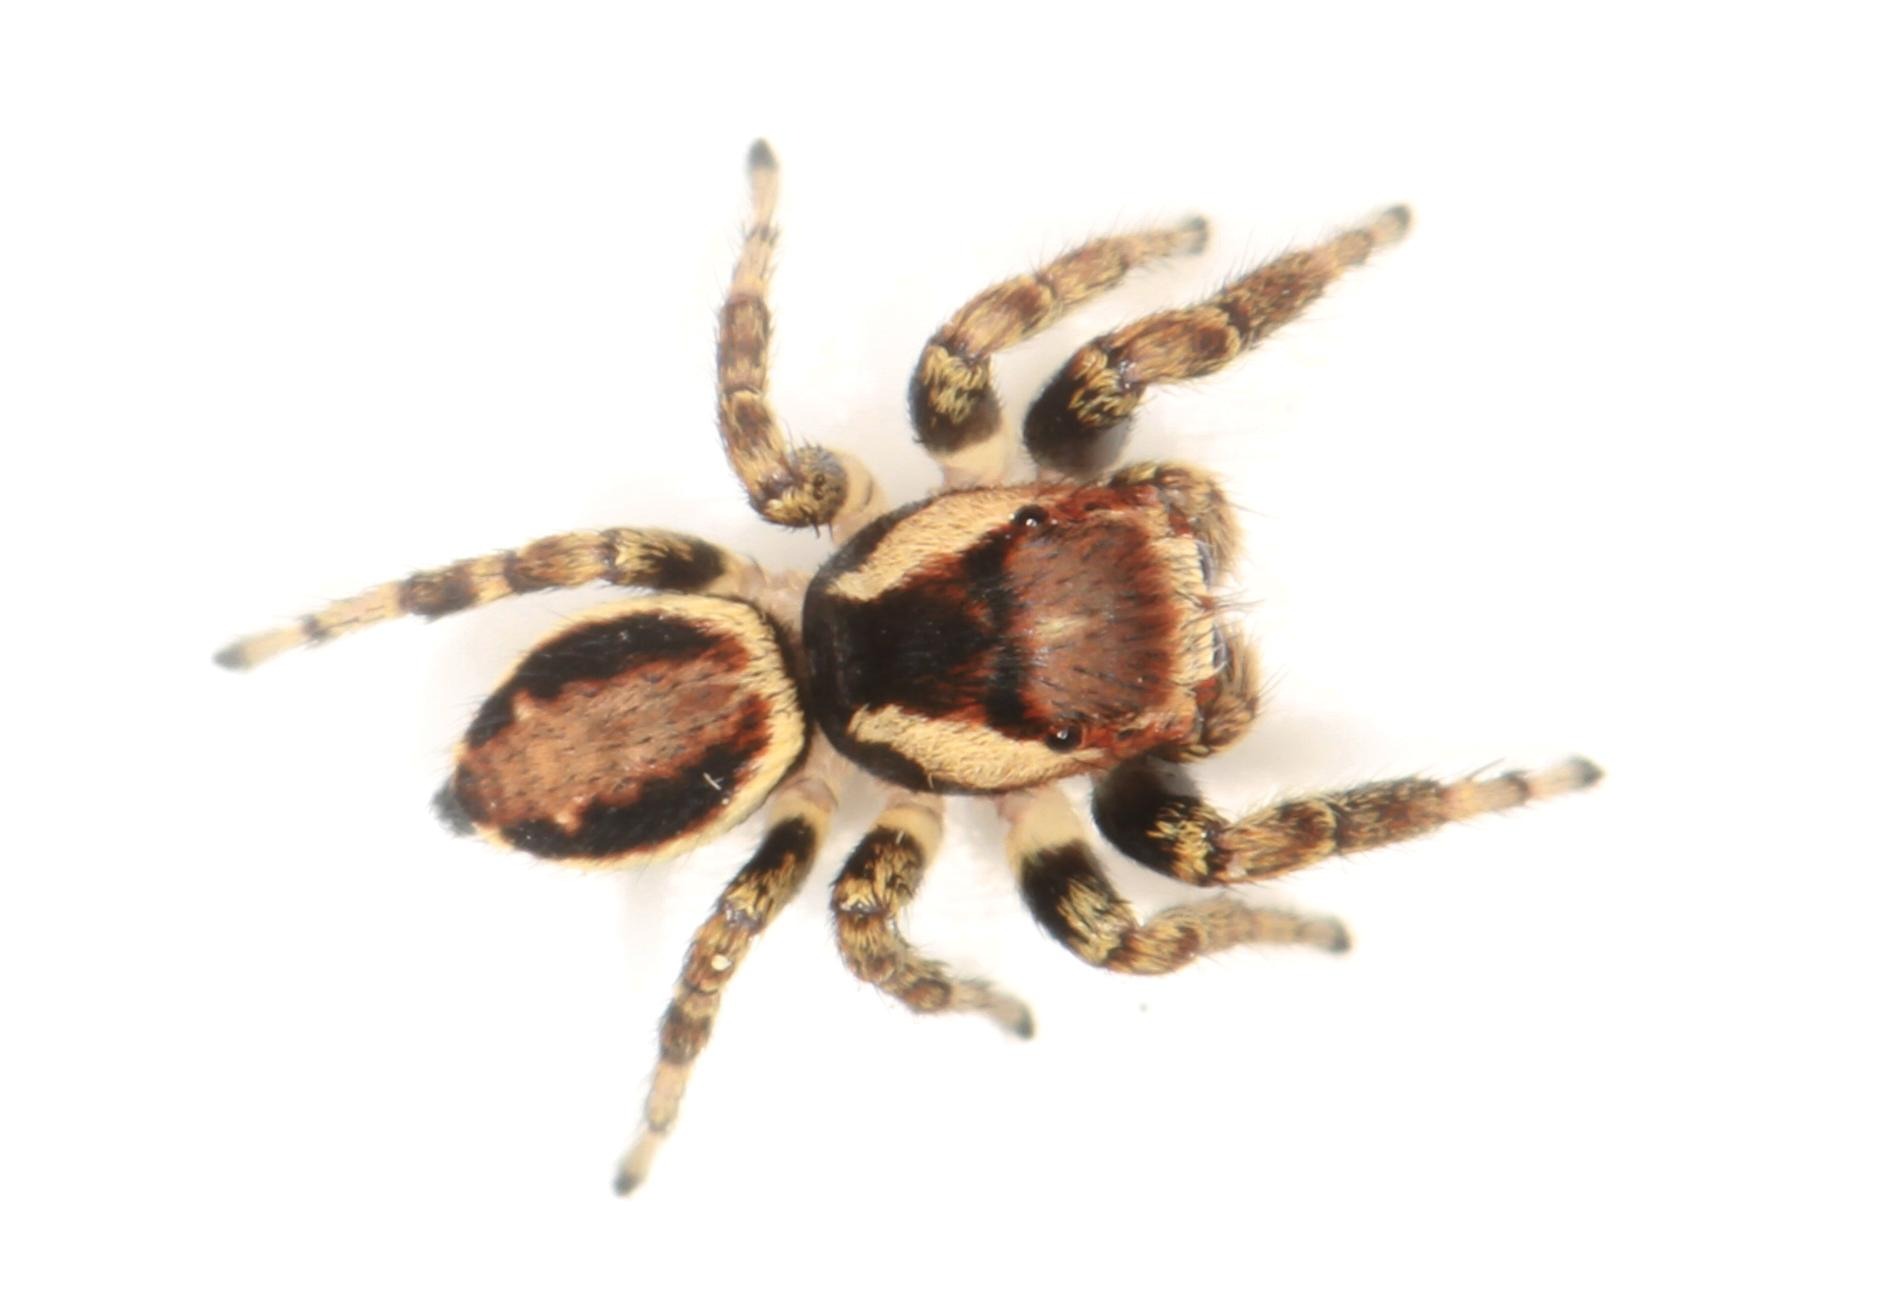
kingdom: Animalia
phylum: Arthropoda
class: Arachnida
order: Araneae
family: Salticidae
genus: Evarcha
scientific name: Evarcha falcata
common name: Broget springedderkop
